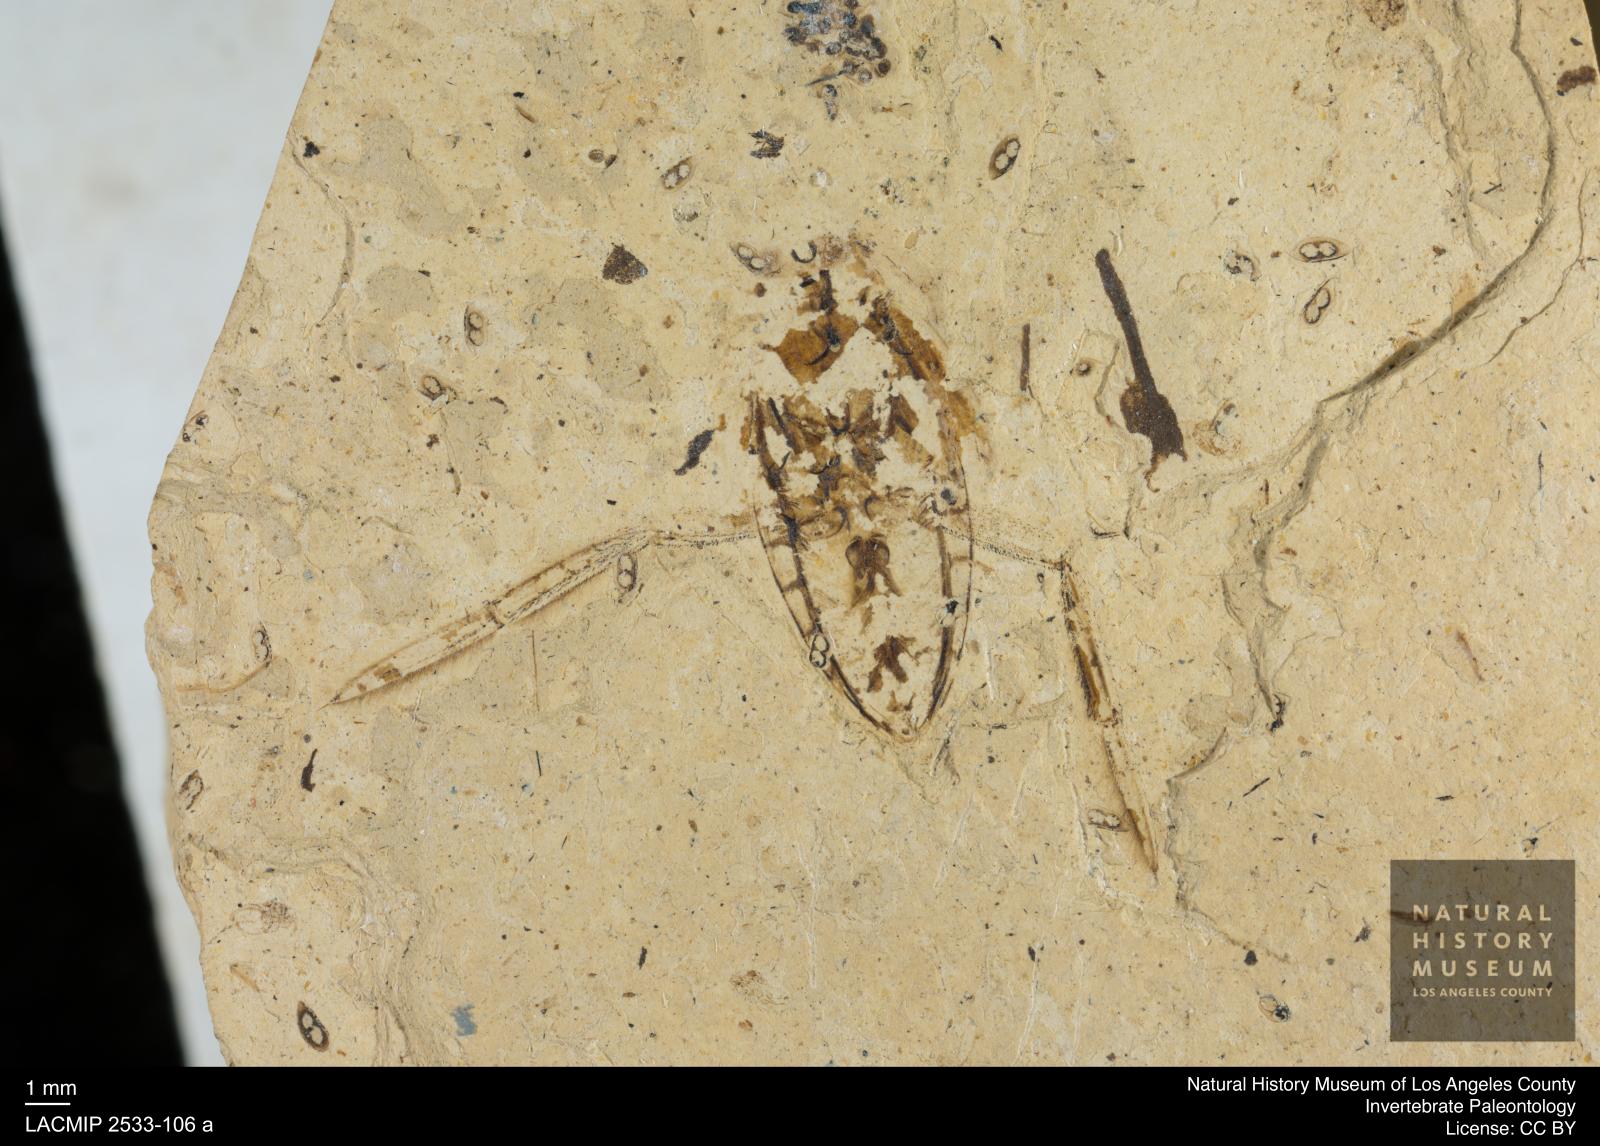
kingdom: Animalia
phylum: Arthropoda
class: Insecta
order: Hemiptera
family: Notonectidae
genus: Notonecta
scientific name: Notonecta primaeva
